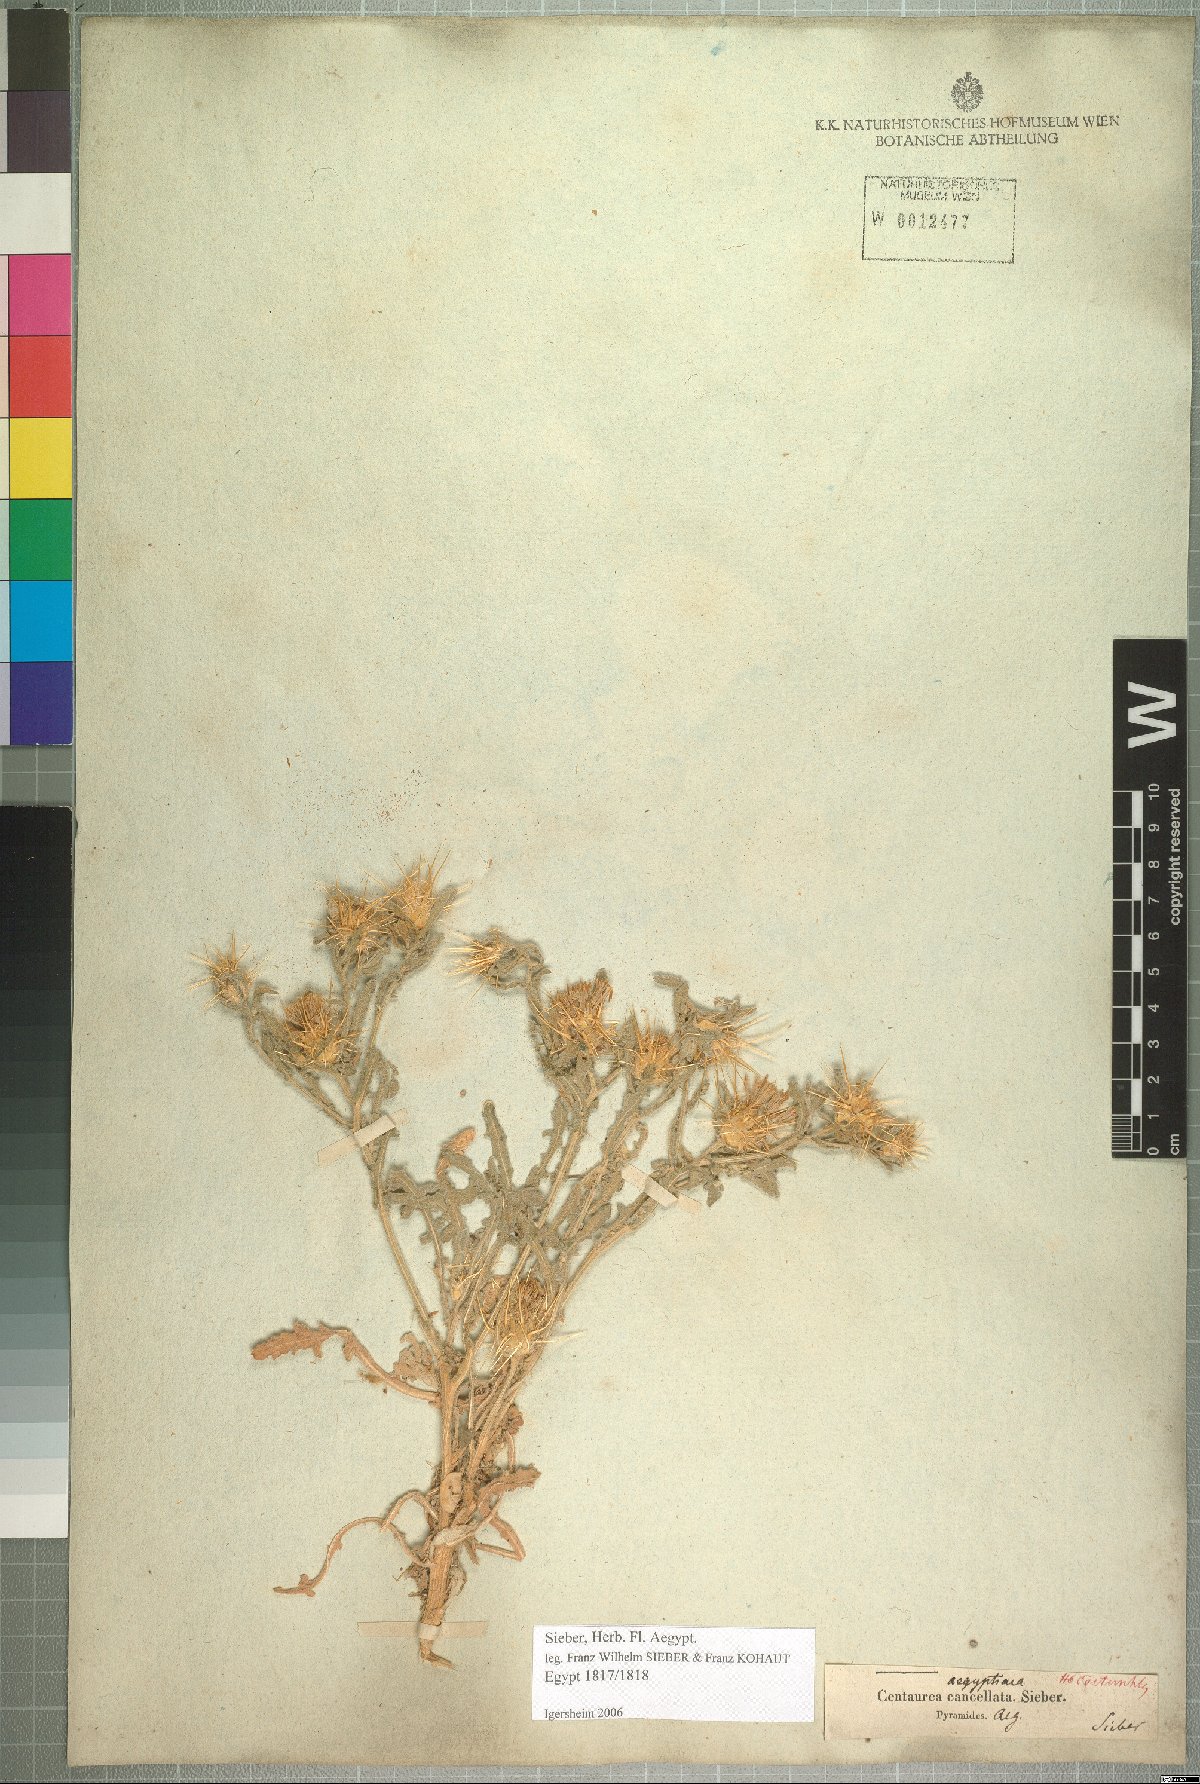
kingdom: Plantae
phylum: Tracheophyta
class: Magnoliopsida
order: Asterales
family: Asteraceae
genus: Centaurea
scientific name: Centaurea aegyptiaca
